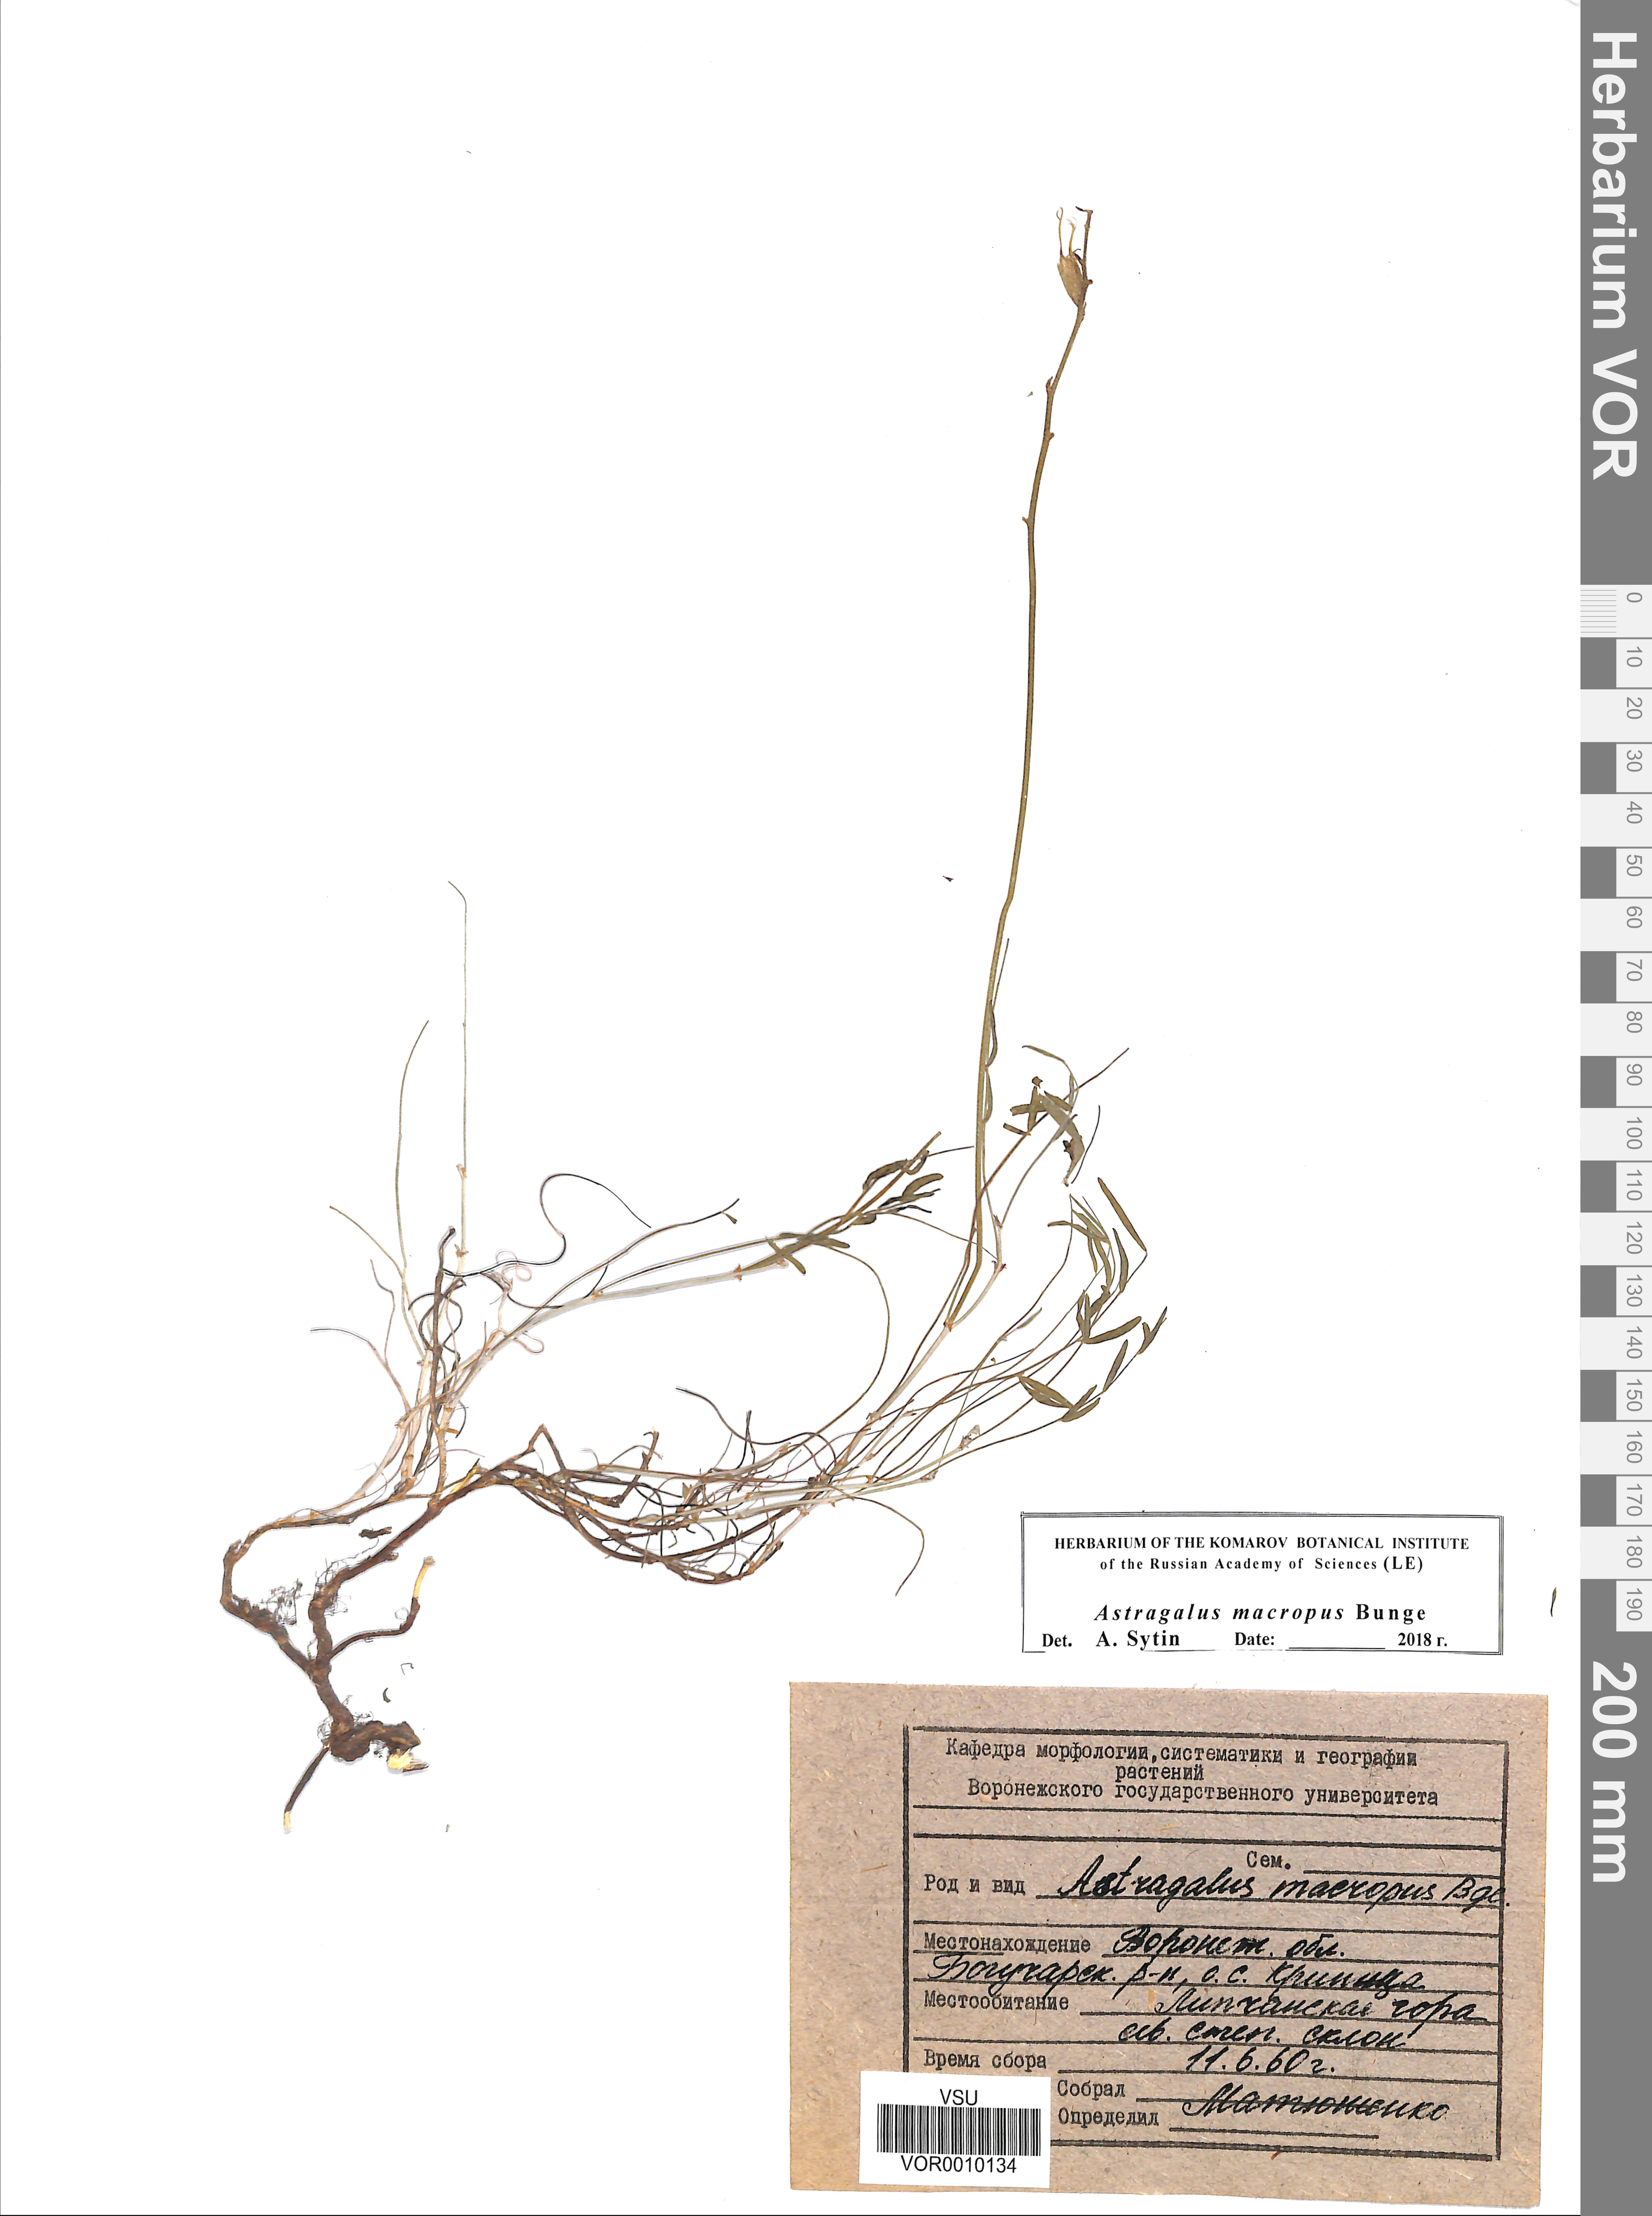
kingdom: Plantae
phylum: Tracheophyta
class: Magnoliopsida
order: Fabales
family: Fabaceae
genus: Astragalus
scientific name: Astragalus macropus
